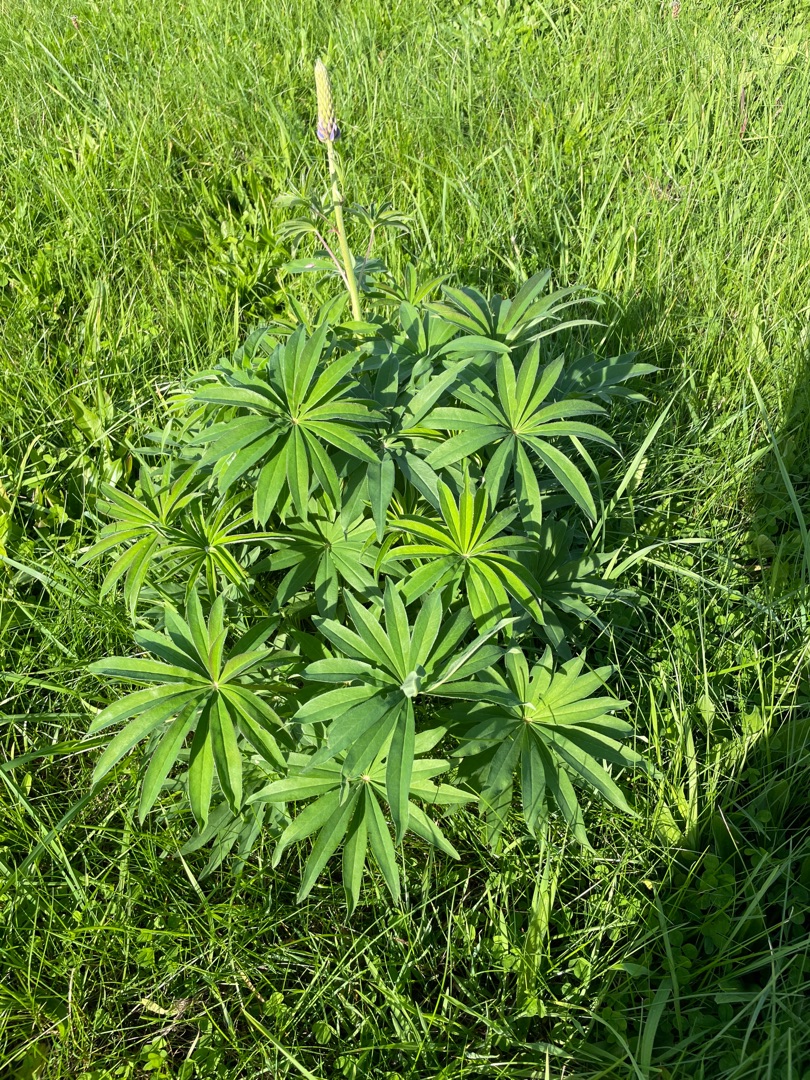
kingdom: Plantae
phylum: Tracheophyta
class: Magnoliopsida
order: Fabales
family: Fabaceae
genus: Lupinus
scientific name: Lupinus polyphyllus
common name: Mangebladet lupin
